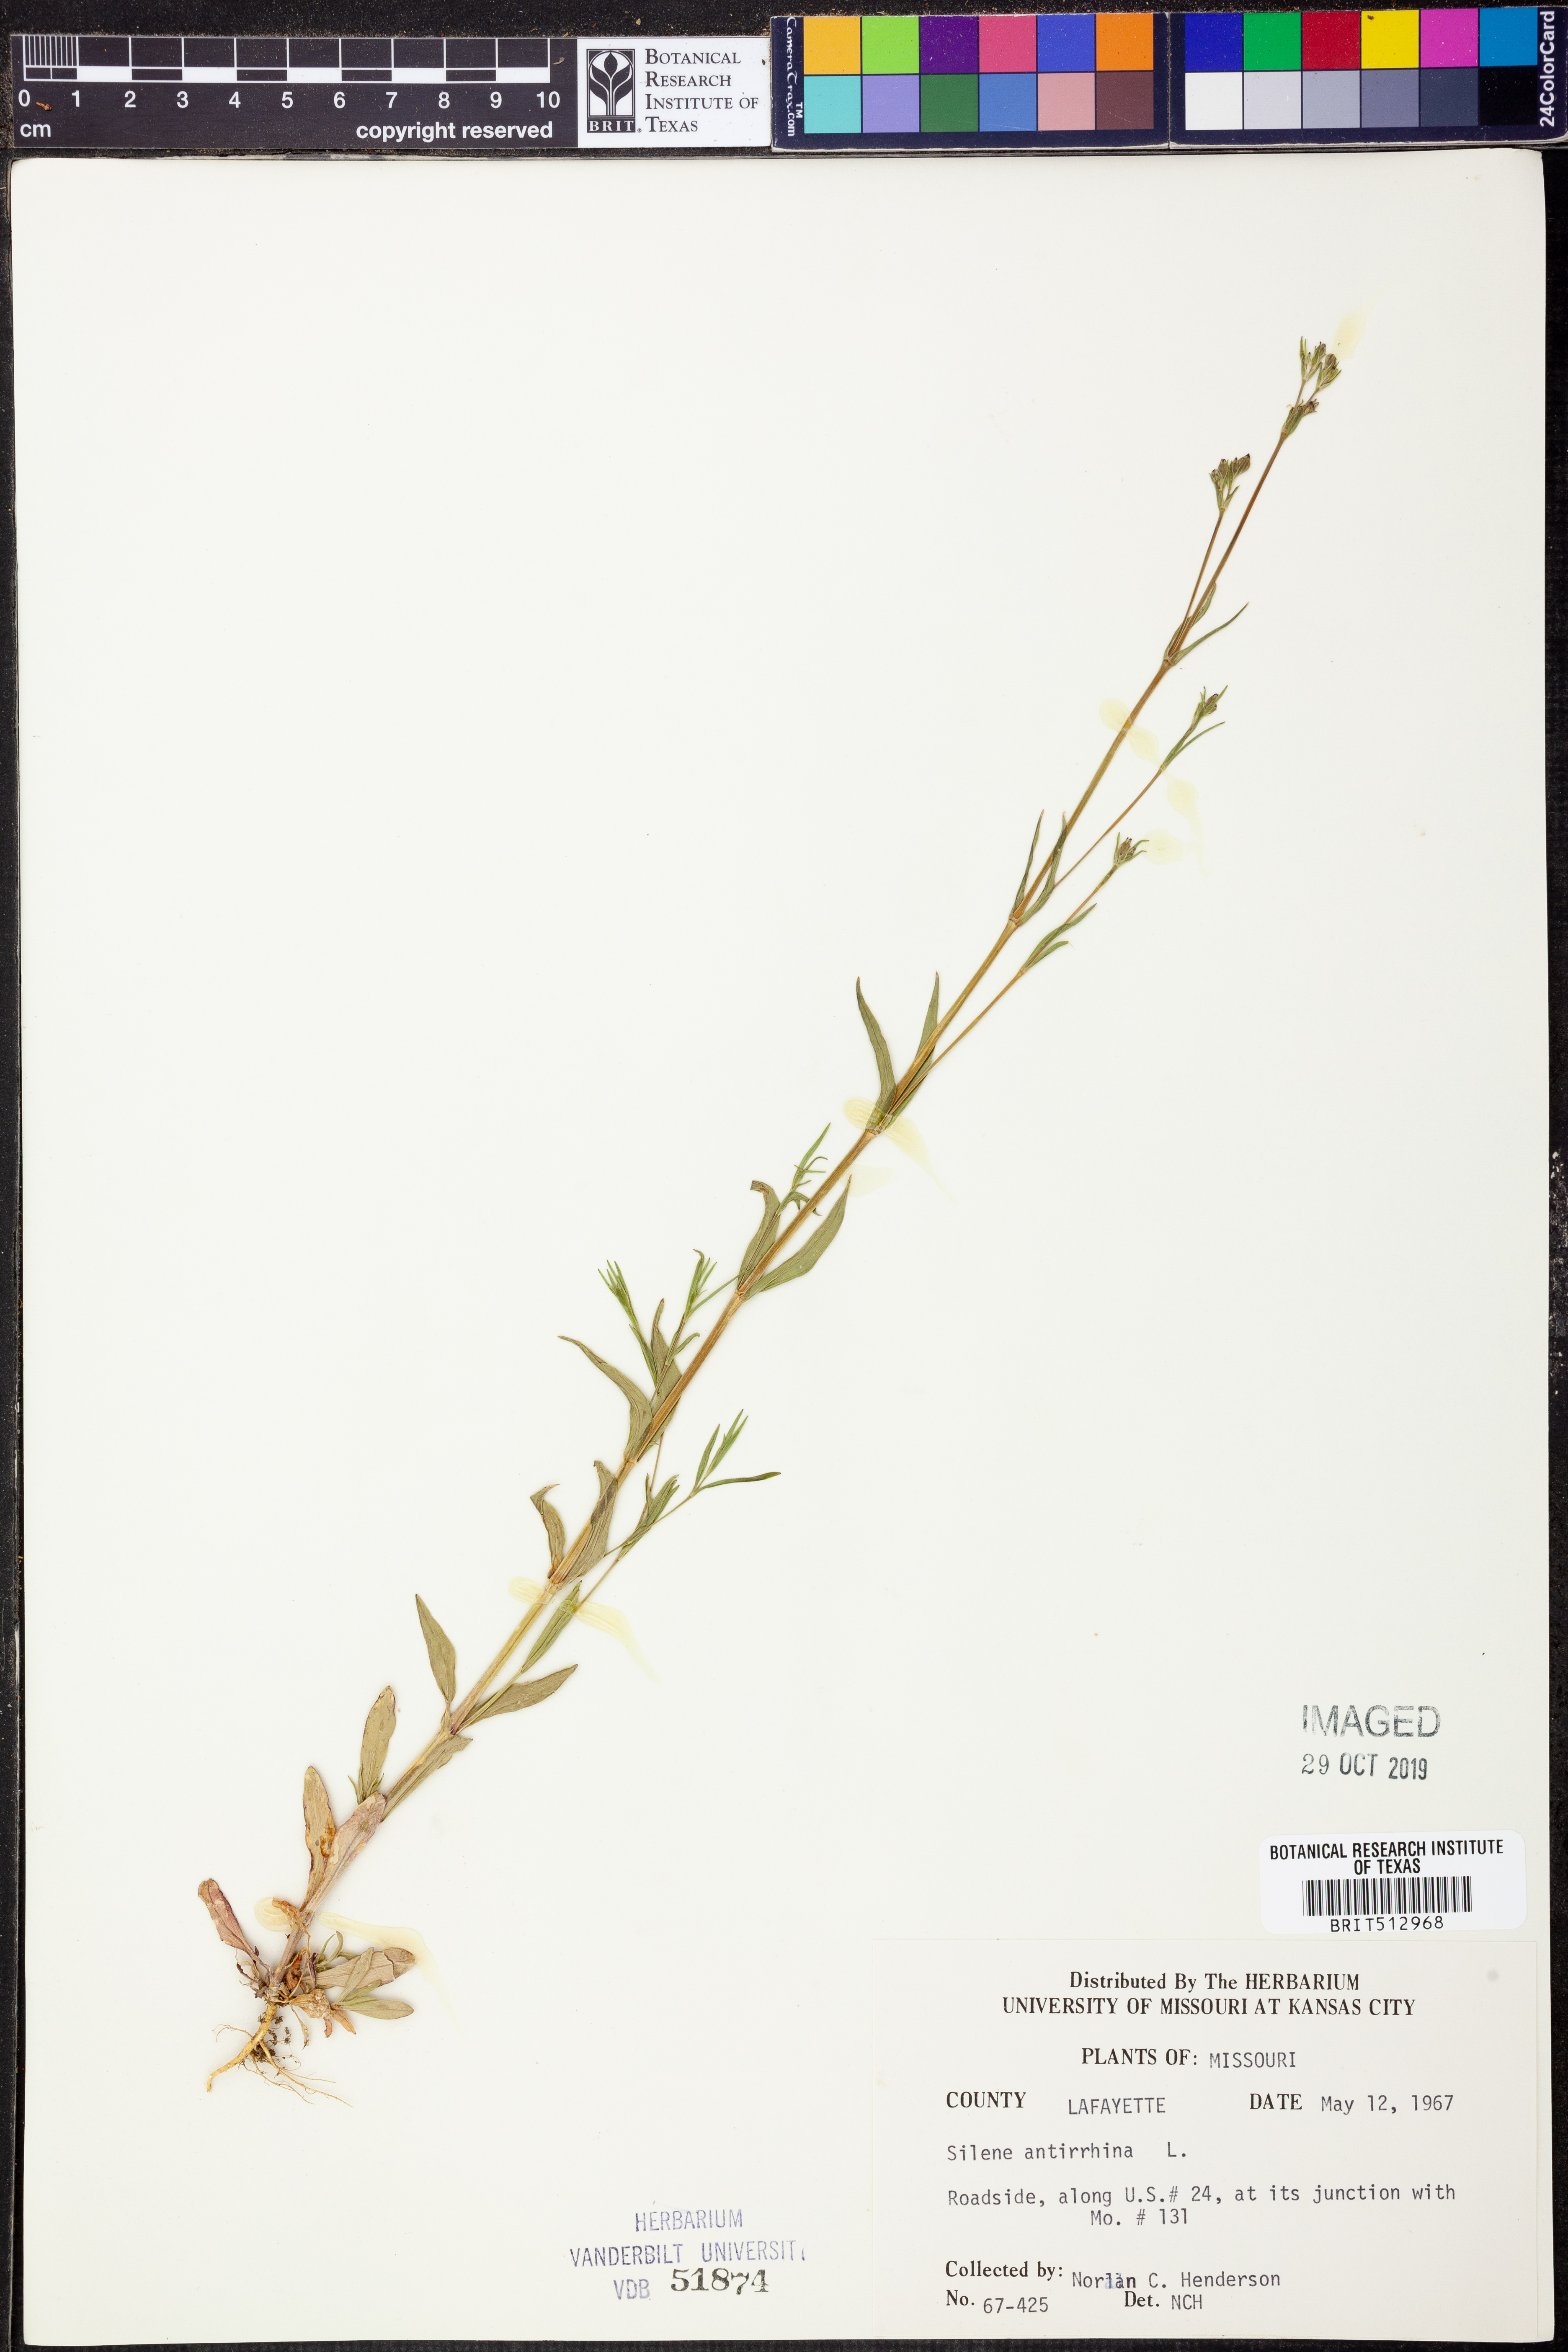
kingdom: Plantae
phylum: Tracheophyta
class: Magnoliopsida
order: Caryophyllales
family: Caryophyllaceae
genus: Silene
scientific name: Silene antirrhina
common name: Sleepy catchfly
